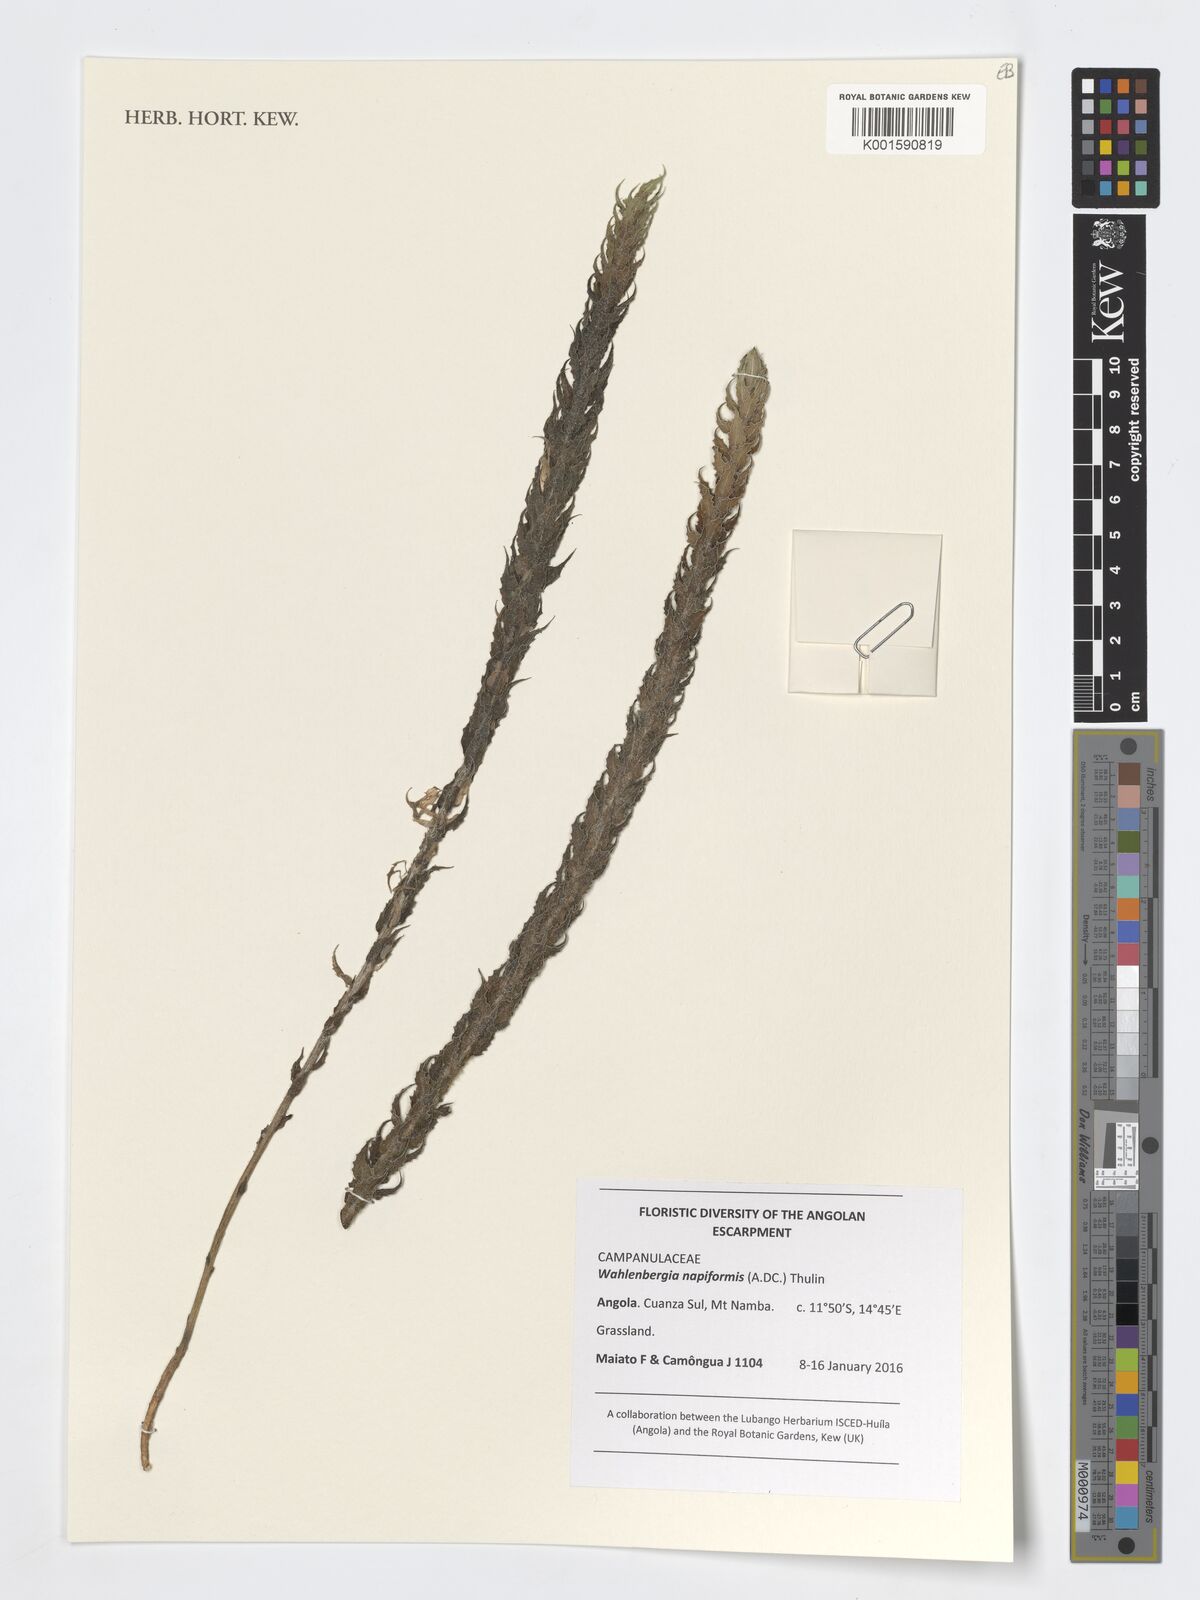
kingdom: Plantae
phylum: Tracheophyta
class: Magnoliopsida
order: Asterales
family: Campanulaceae
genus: Wahlenbergia
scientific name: Wahlenbergia napiformis
